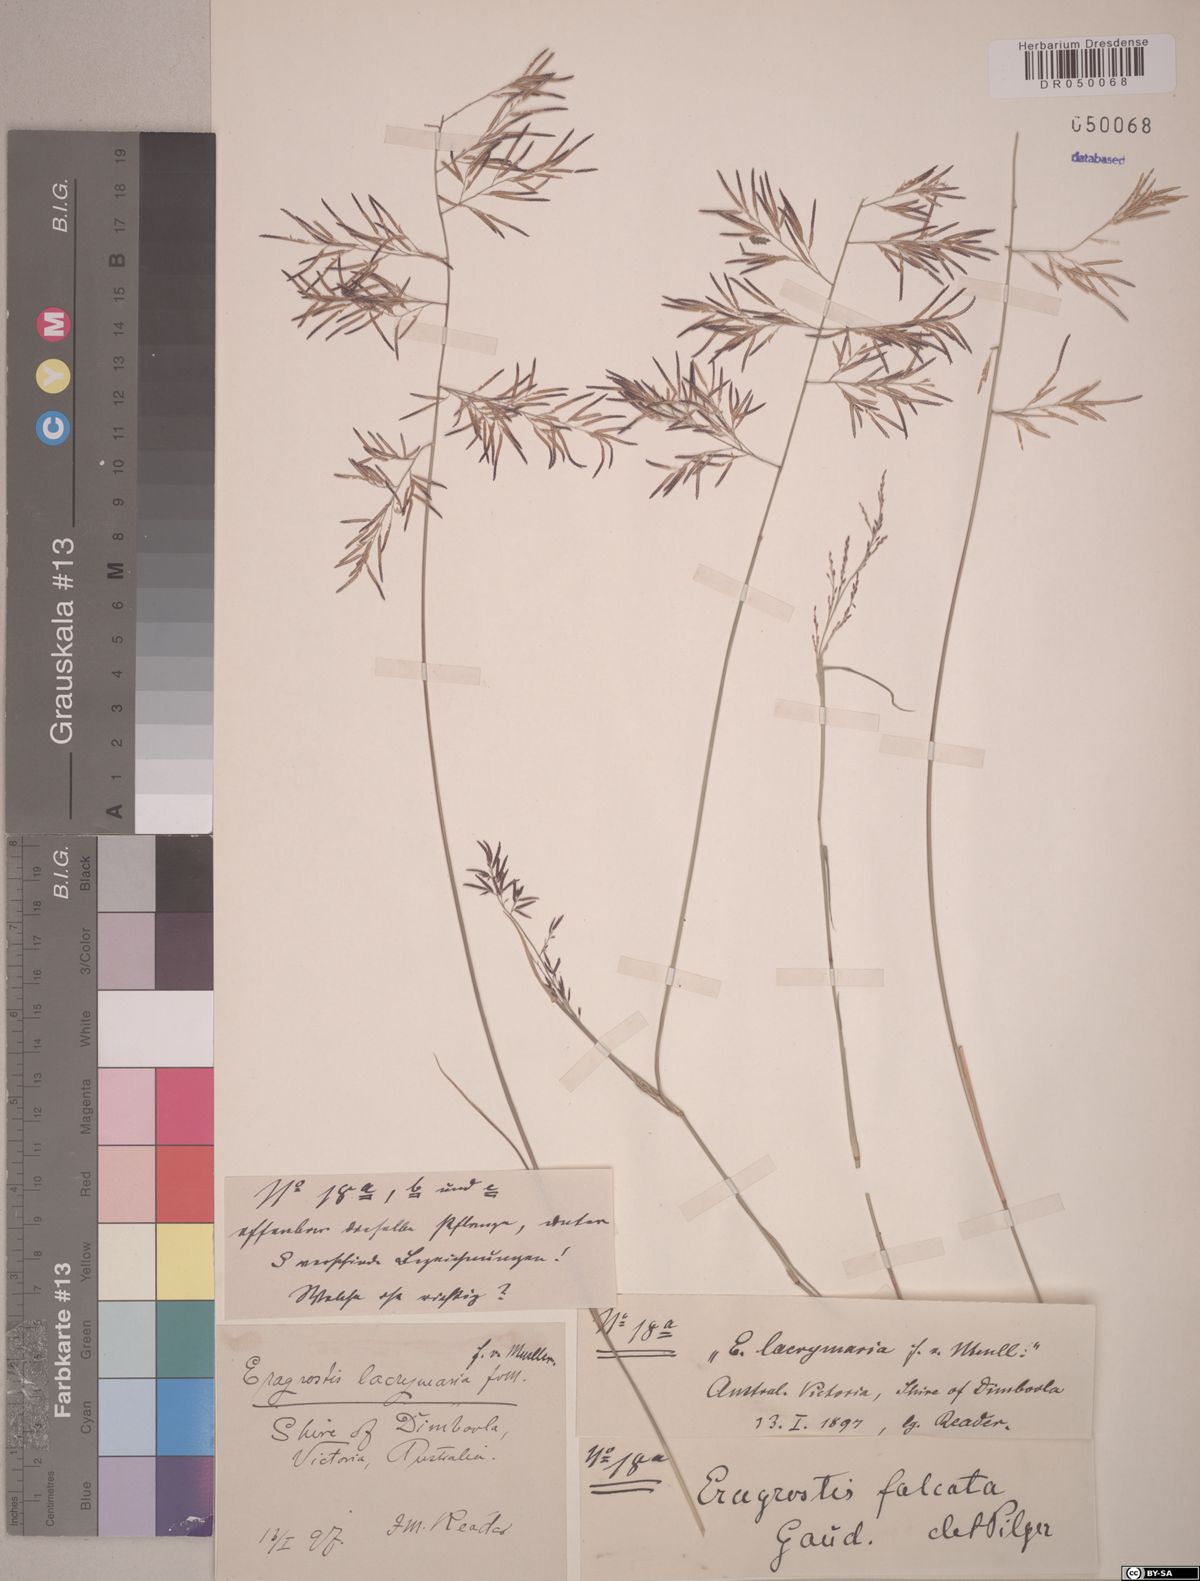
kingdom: Plantae
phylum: Tracheophyta
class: Liliopsida
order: Poales
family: Poaceae
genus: Eragrostis
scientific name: Eragrostis falcata
